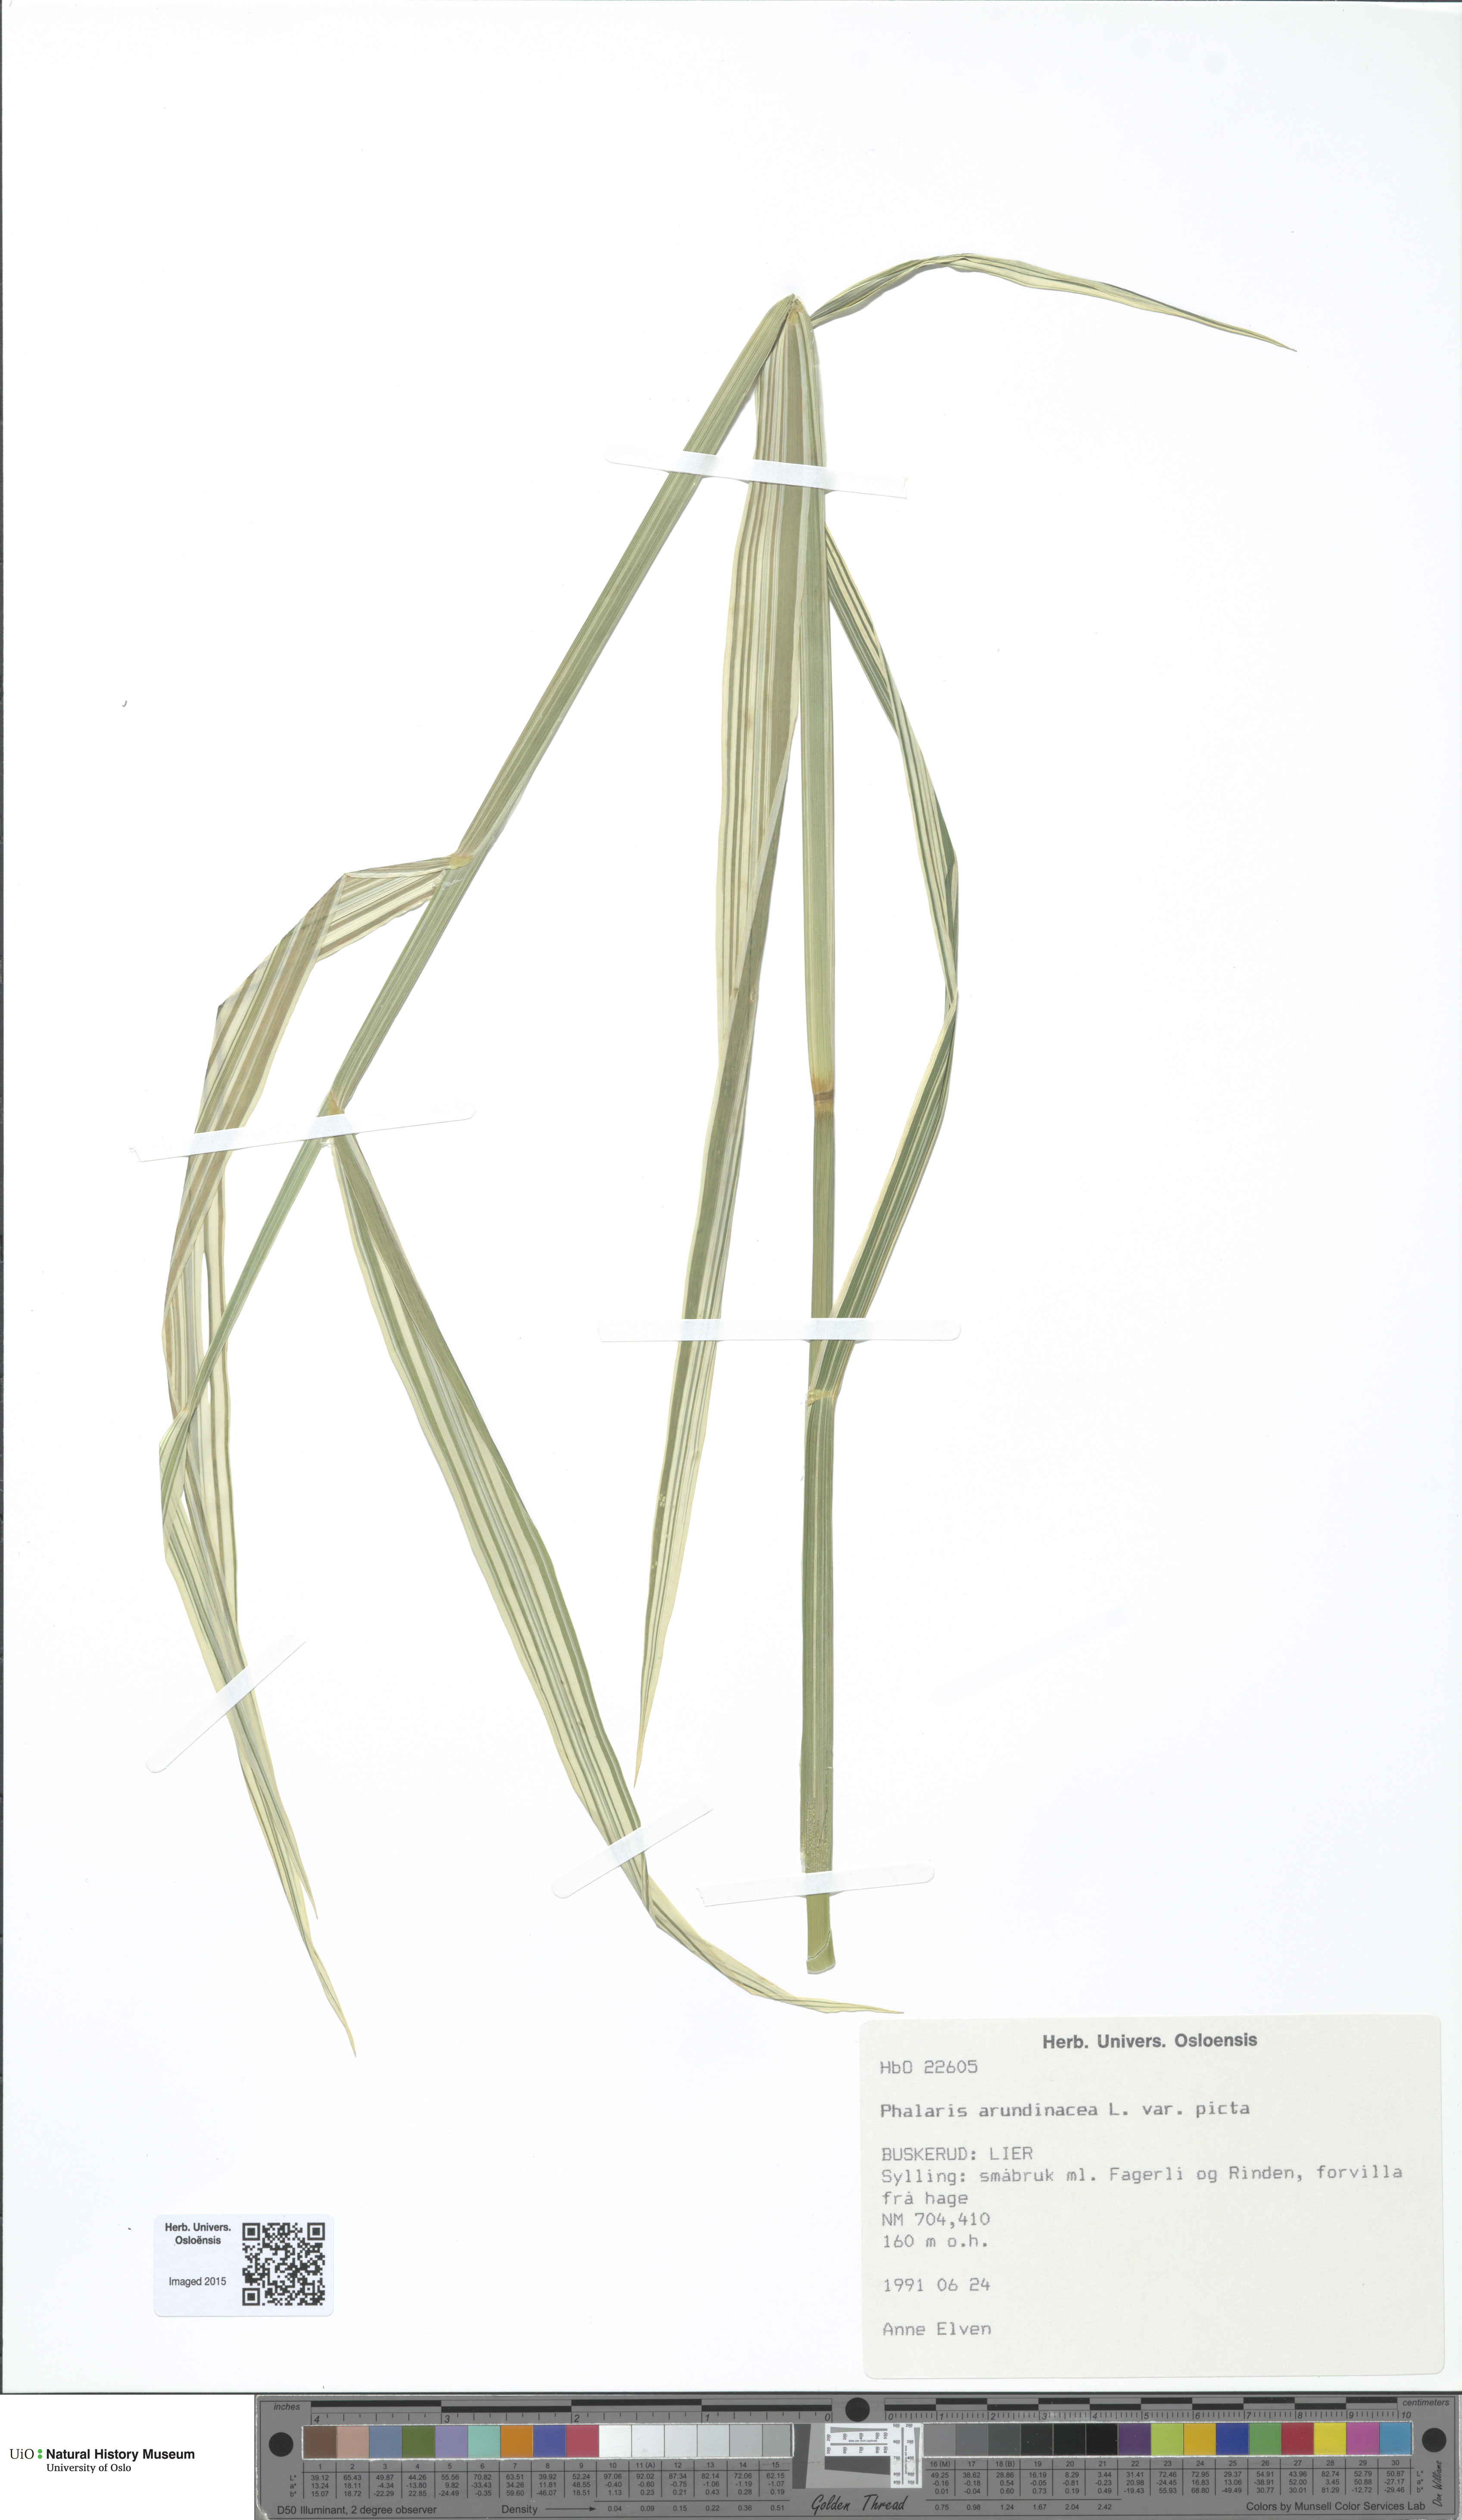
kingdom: Plantae
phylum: Tracheophyta
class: Liliopsida
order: Poales
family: Poaceae
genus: Phalaris
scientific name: Phalaris arundinacea
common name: Reed canary-grass
